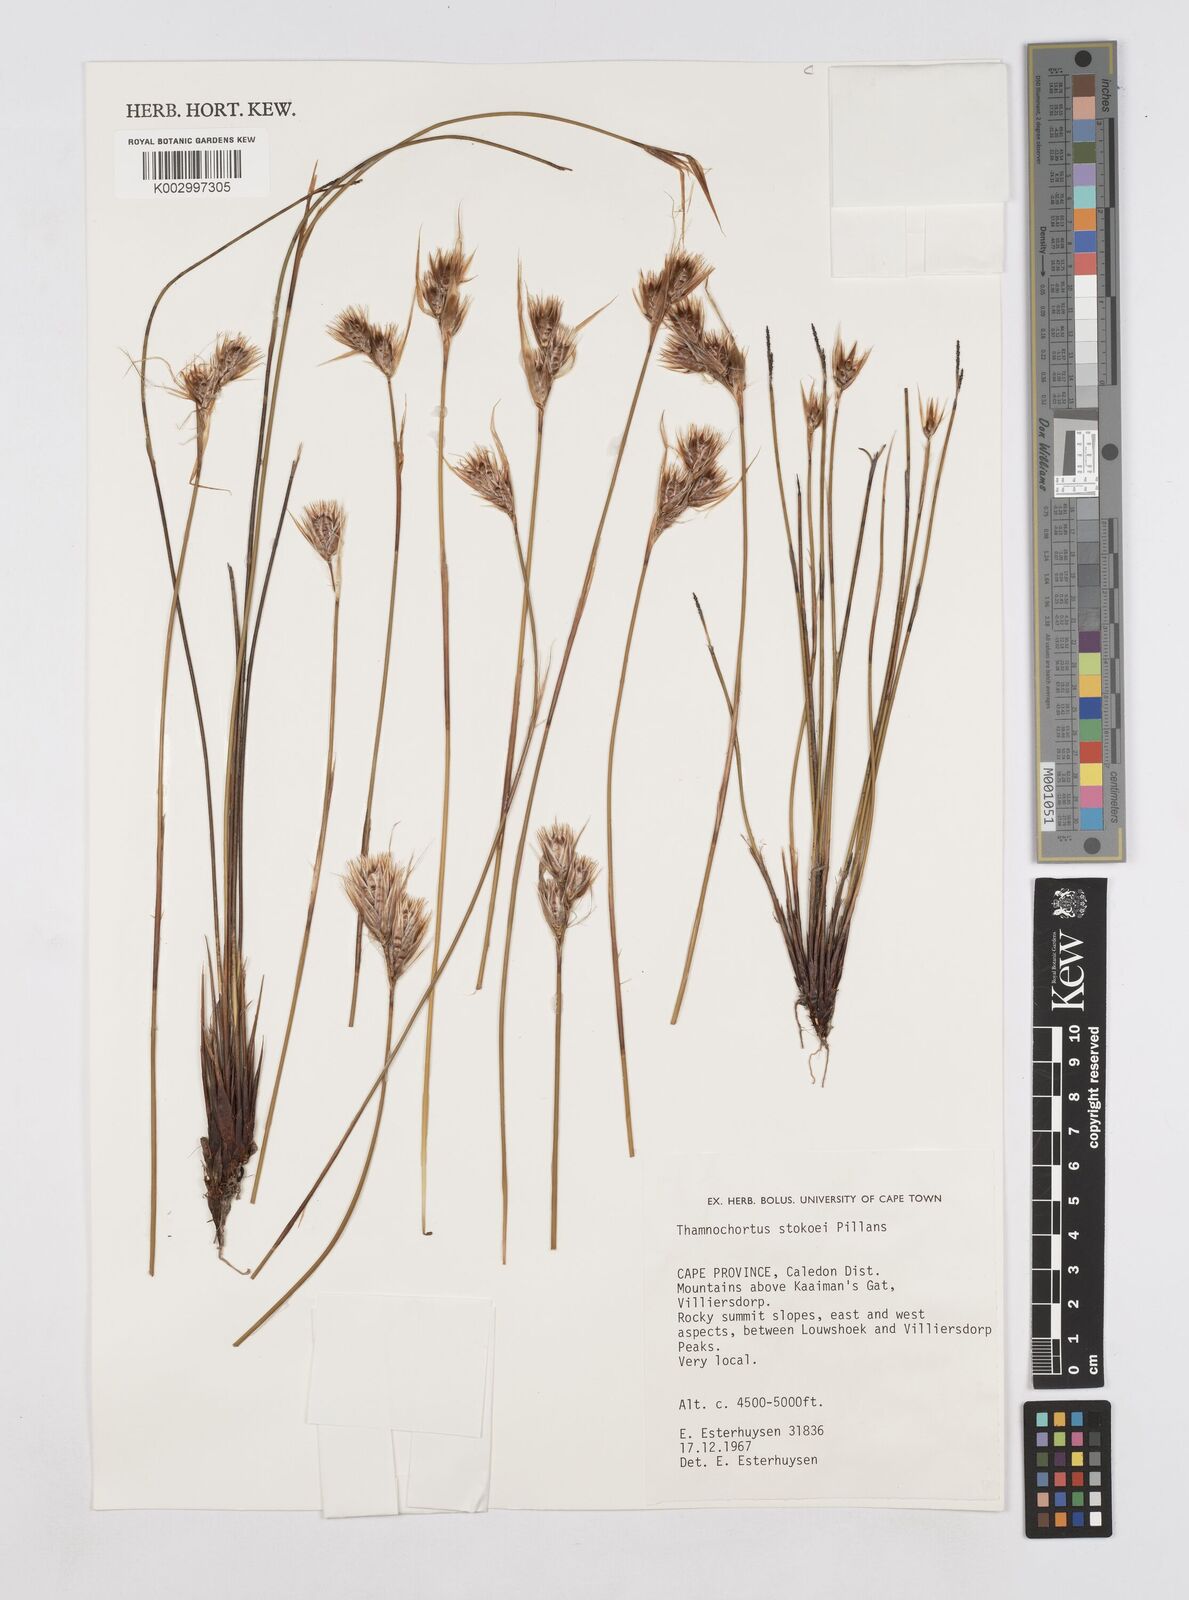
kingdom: Plantae
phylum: Tracheophyta
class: Liliopsida
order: Poales
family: Restionaceae
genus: Thamnochortus
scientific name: Thamnochortus stokoei
